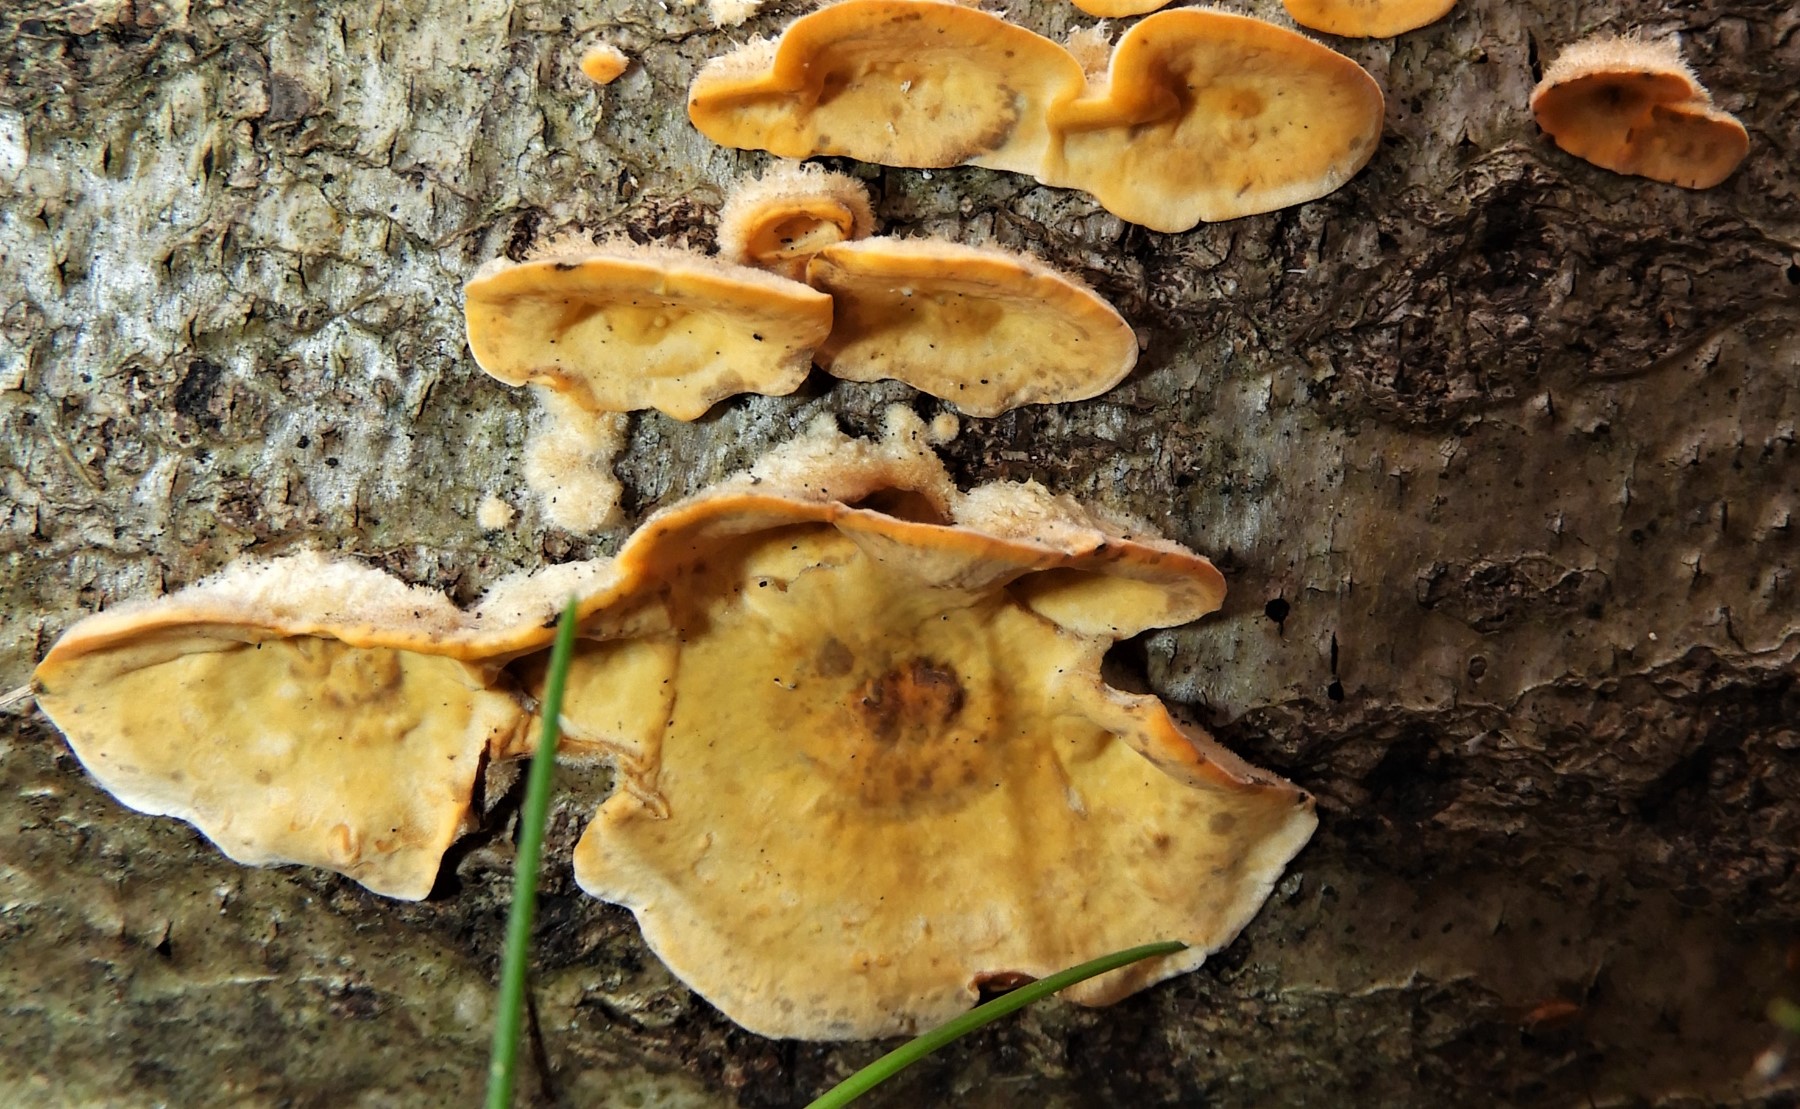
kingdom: Fungi
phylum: Basidiomycota
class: Agaricomycetes
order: Russulales
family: Stereaceae
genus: Stereum
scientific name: Stereum hirsutum
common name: håret lædersvamp
